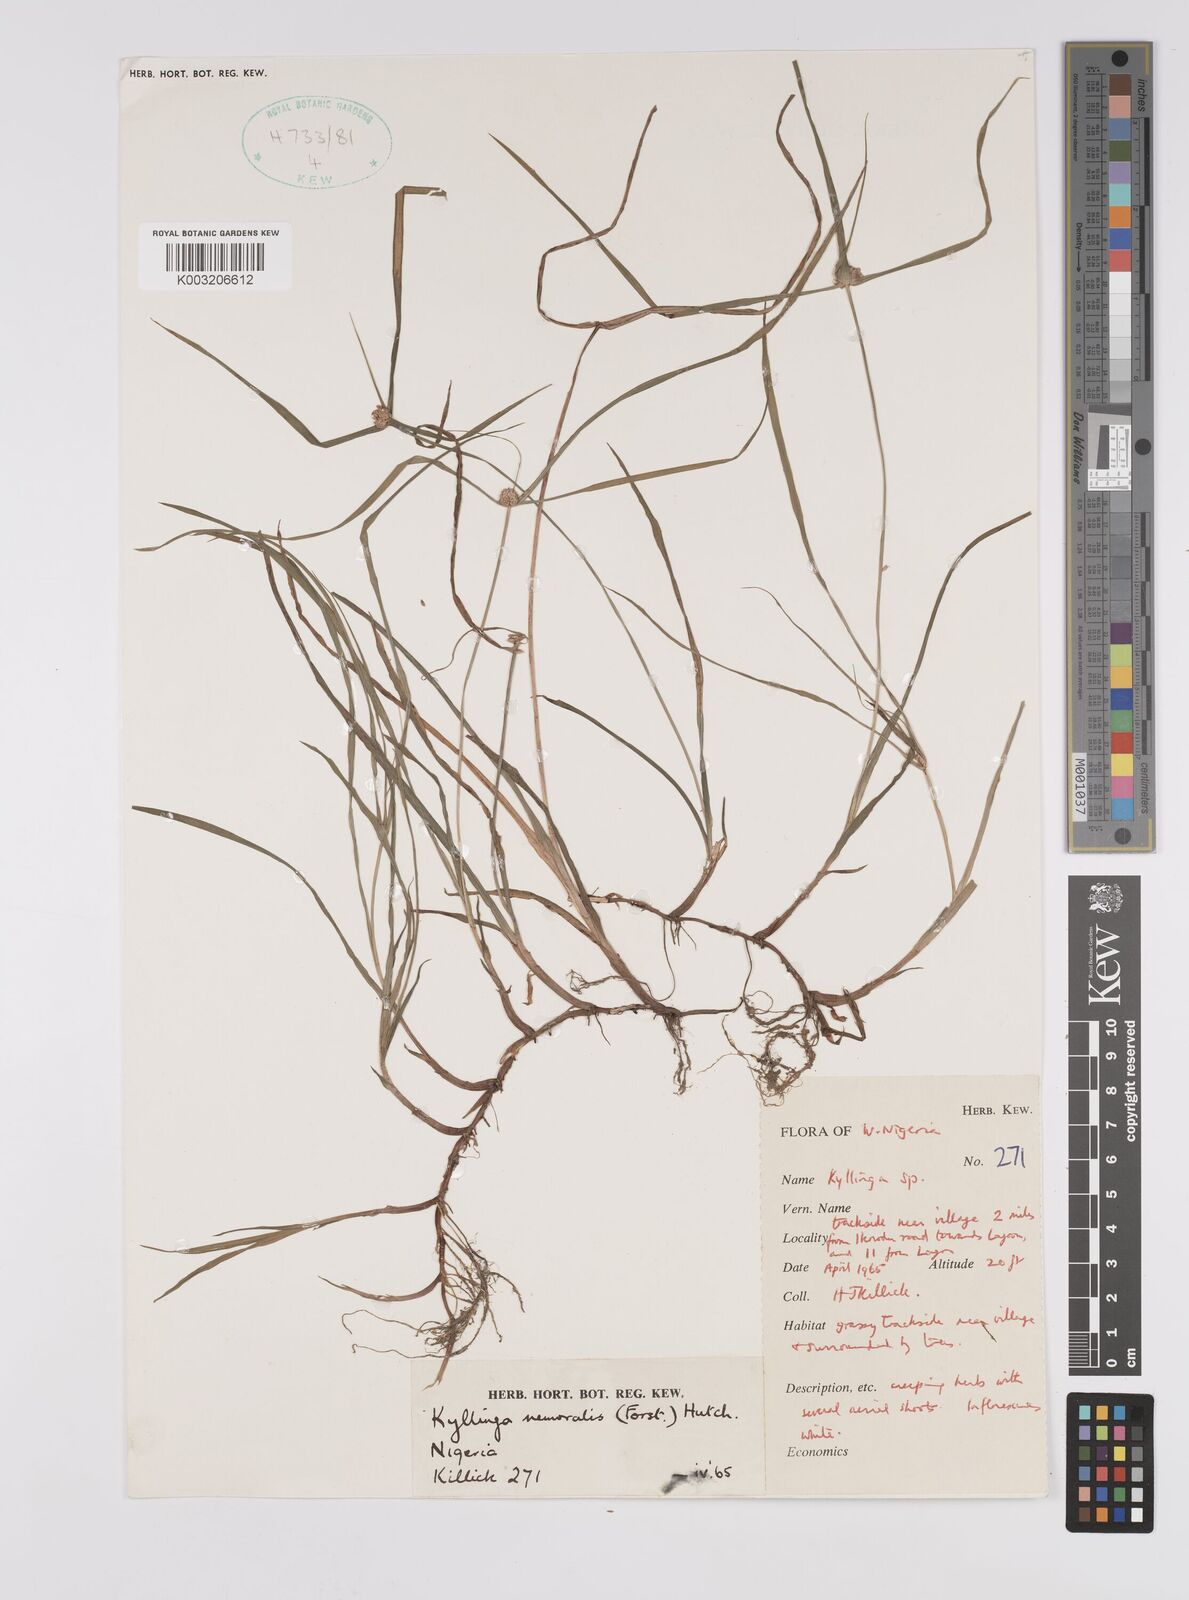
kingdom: Plantae
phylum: Tracheophyta
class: Liliopsida
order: Poales
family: Cyperaceae
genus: Cyperus
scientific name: Cyperus nemoralis
